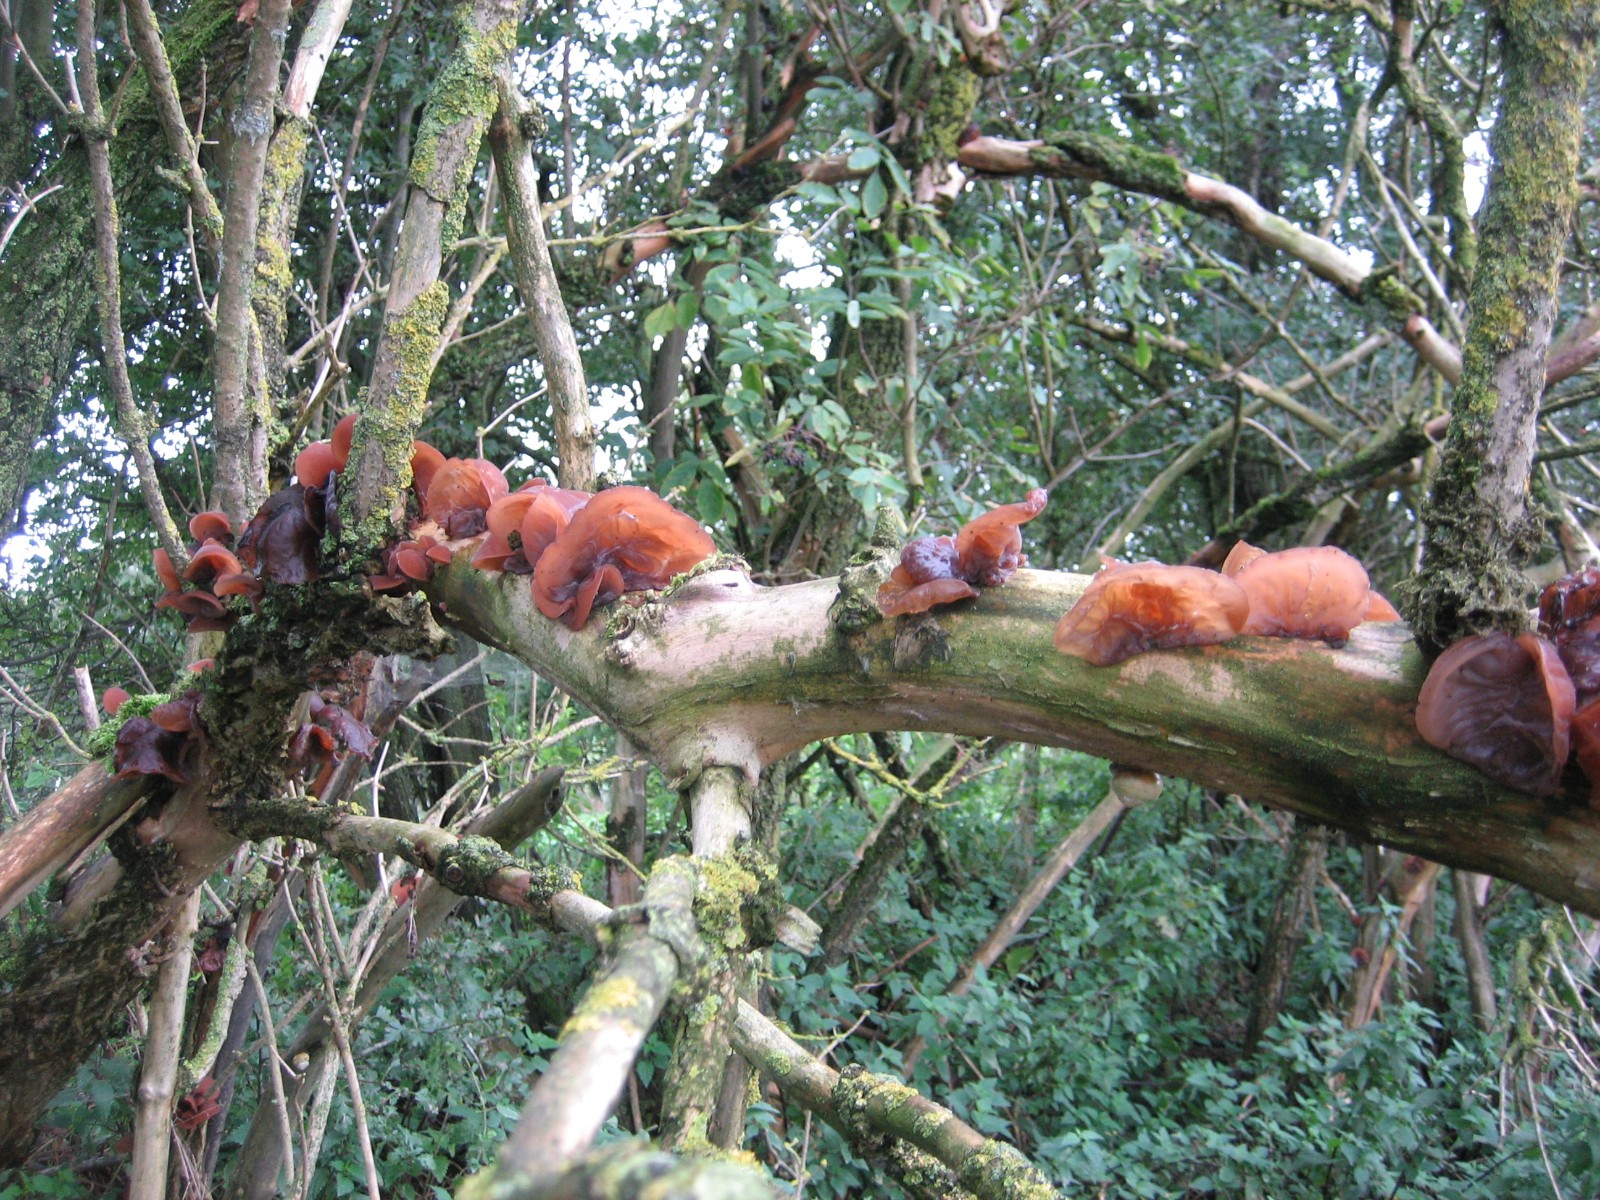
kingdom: Fungi
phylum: Basidiomycota
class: Agaricomycetes
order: Auriculariales
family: Auriculariaceae
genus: Auricularia
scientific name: Auricularia auricula-judae
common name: almindelig judasøre
